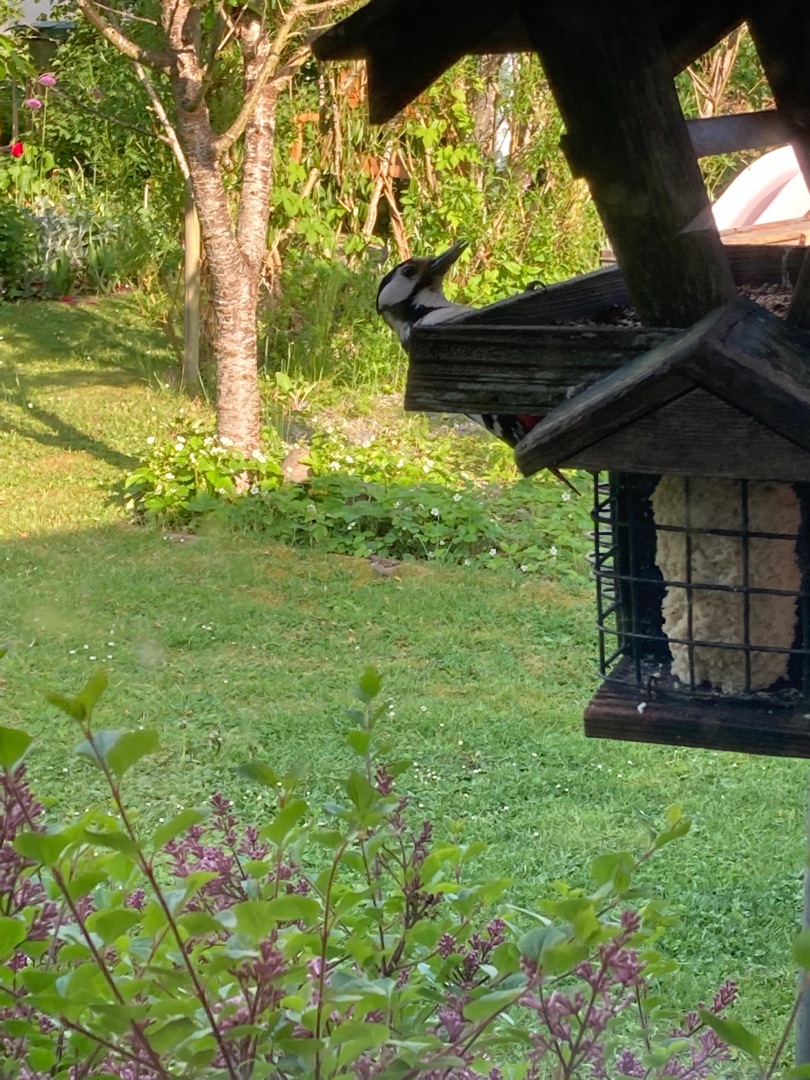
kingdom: Animalia
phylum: Chordata
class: Aves
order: Piciformes
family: Picidae
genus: Dendrocopos
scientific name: Dendrocopos major
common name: Stor flagspætte
